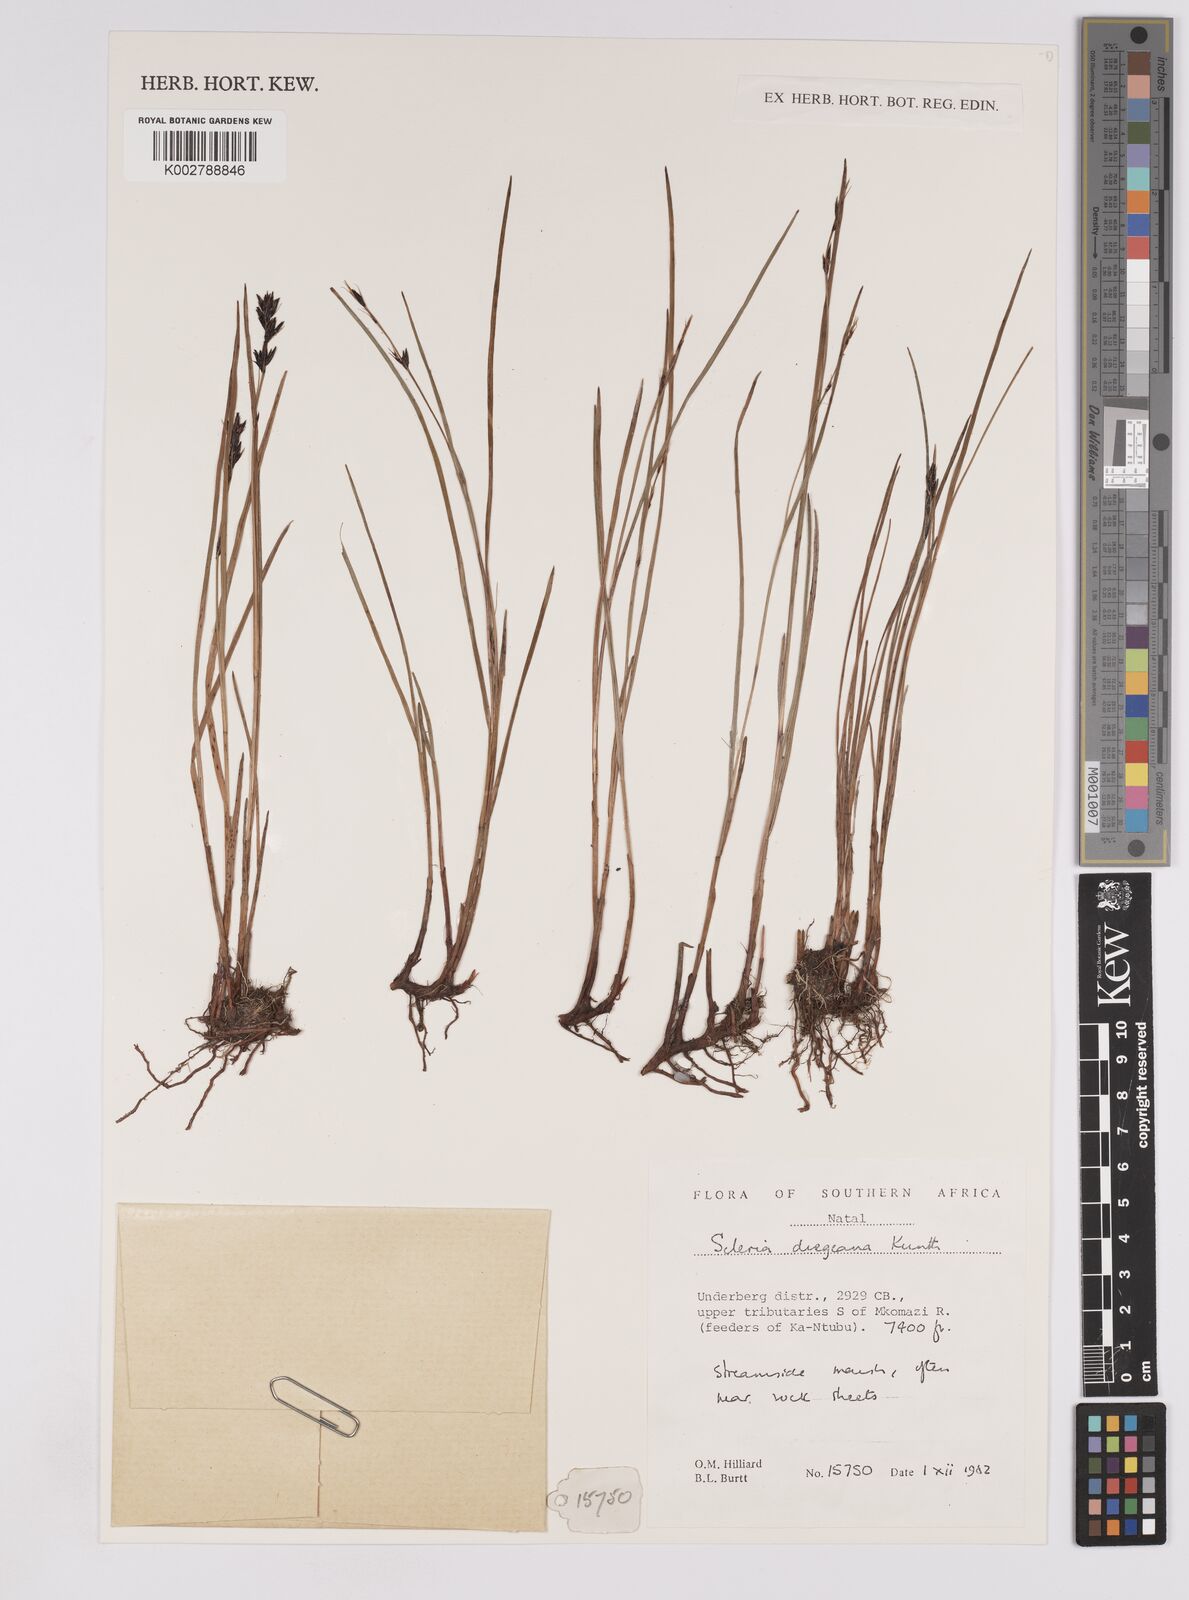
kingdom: Plantae
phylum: Tracheophyta
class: Liliopsida
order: Poales
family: Cyperaceae
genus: Scleria
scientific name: Scleria dregeana
